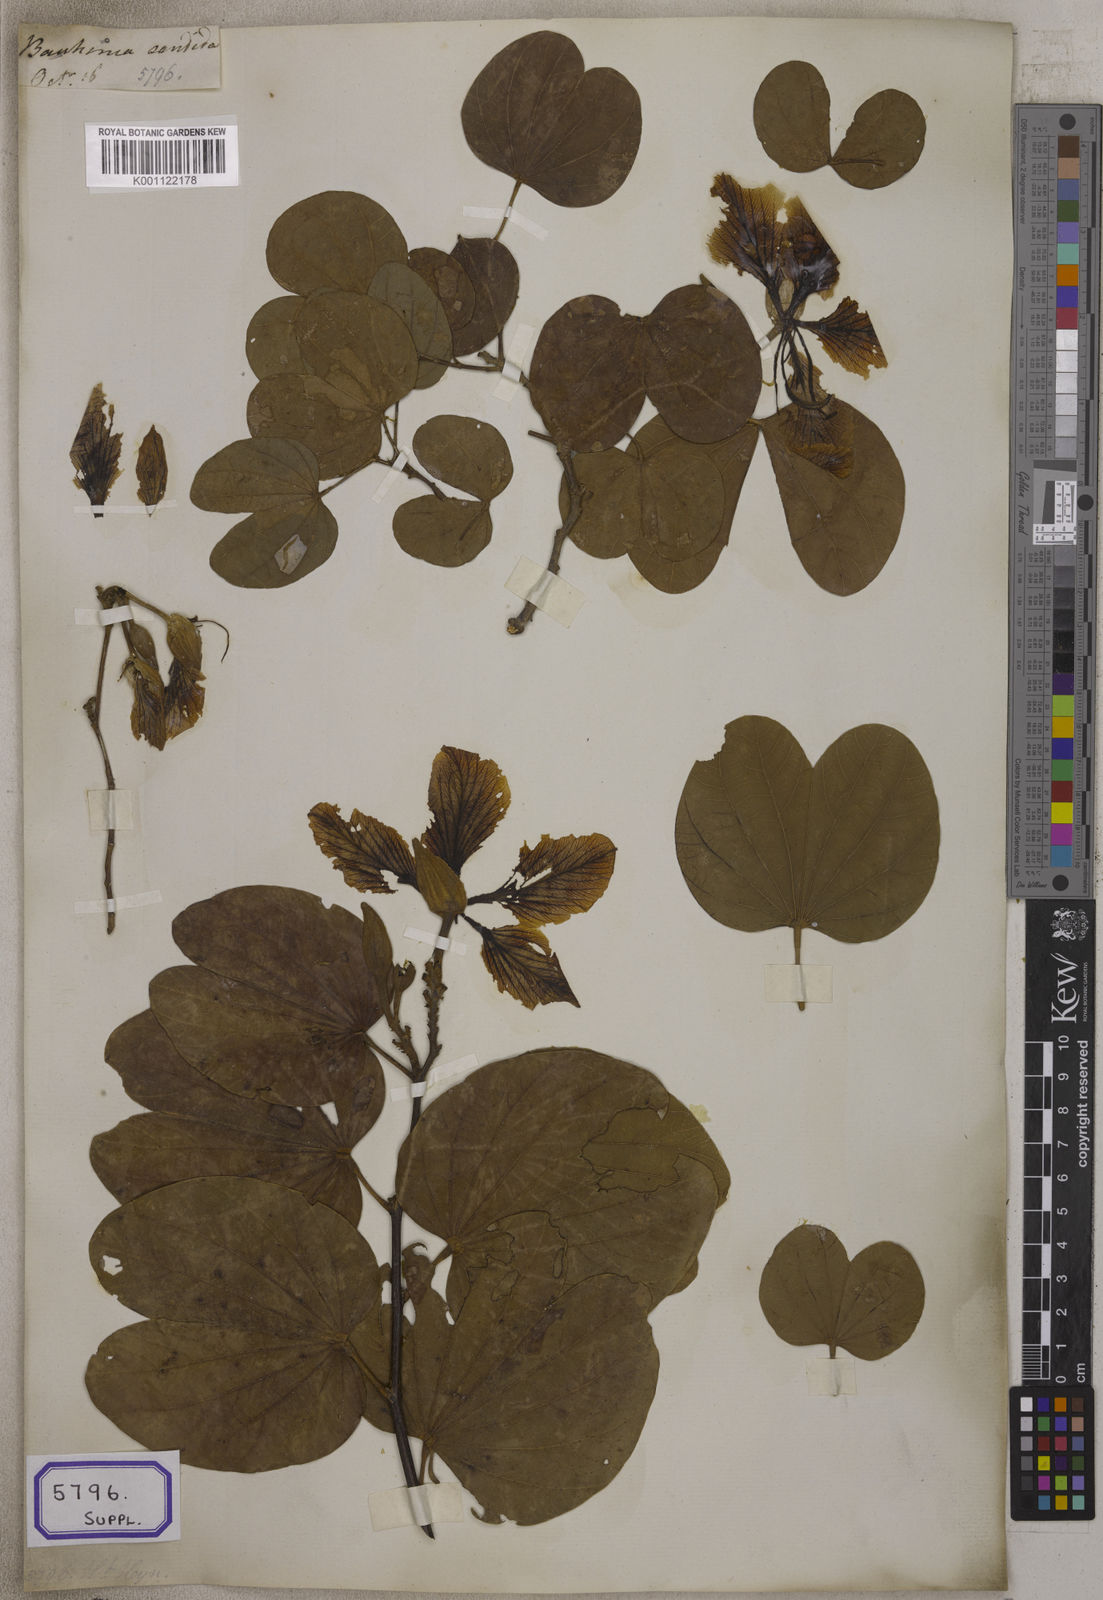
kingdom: Plantae
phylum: Tracheophyta
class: Magnoliopsida
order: Fabales
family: Fabaceae
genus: Bauhinia
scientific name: Bauhinia variegata
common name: Mountain ebony
